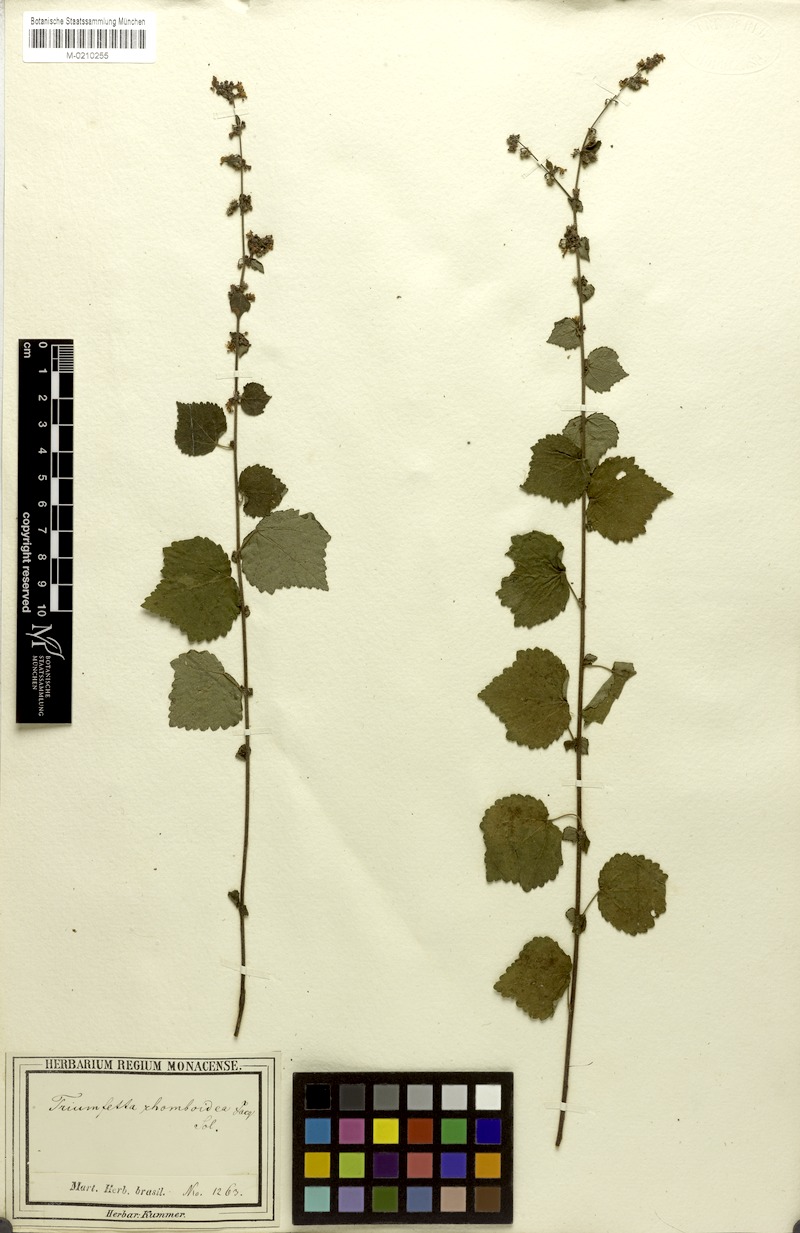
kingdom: Plantae
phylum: Tracheophyta
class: Magnoliopsida
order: Malvales
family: Malvaceae
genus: Triumfetta
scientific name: Triumfetta rhomboidea
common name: Diamond burbark
